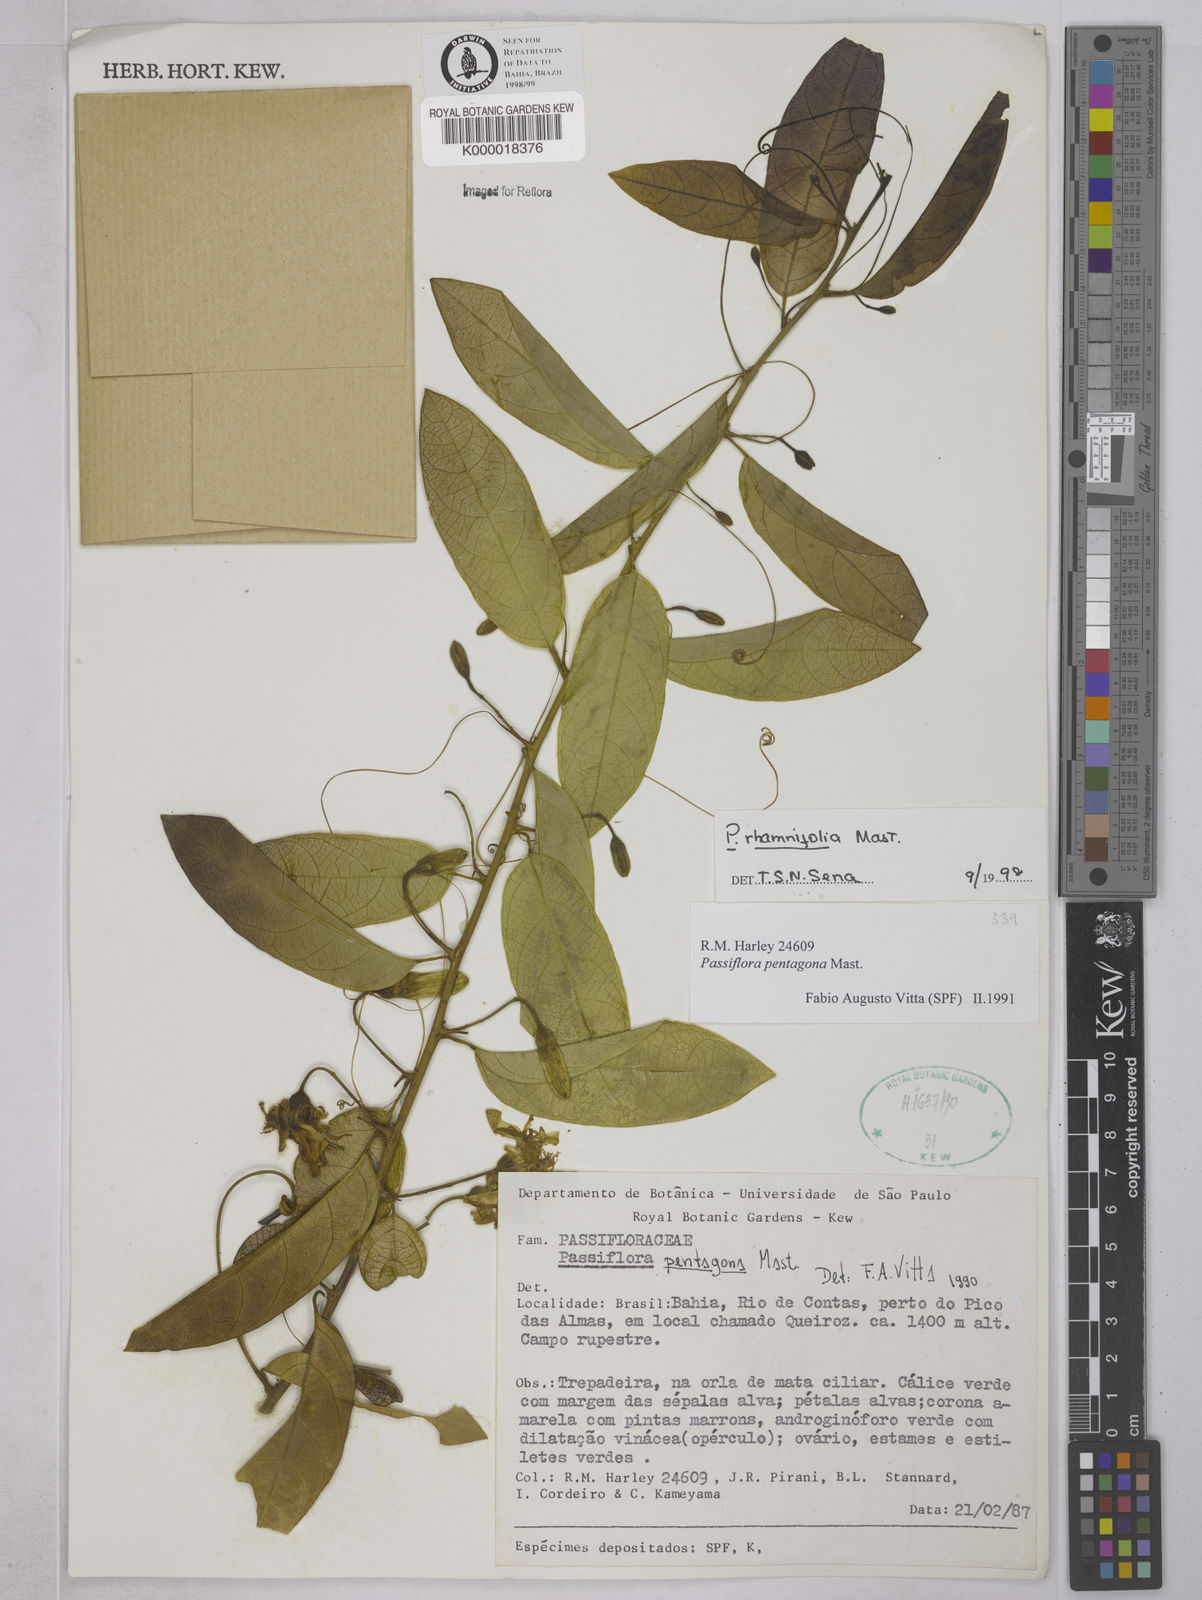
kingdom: Plantae
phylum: Tracheophyta
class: Magnoliopsida
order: Malpighiales
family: Passifloraceae
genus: Passiflora
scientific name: Passiflora rhamnifolia
